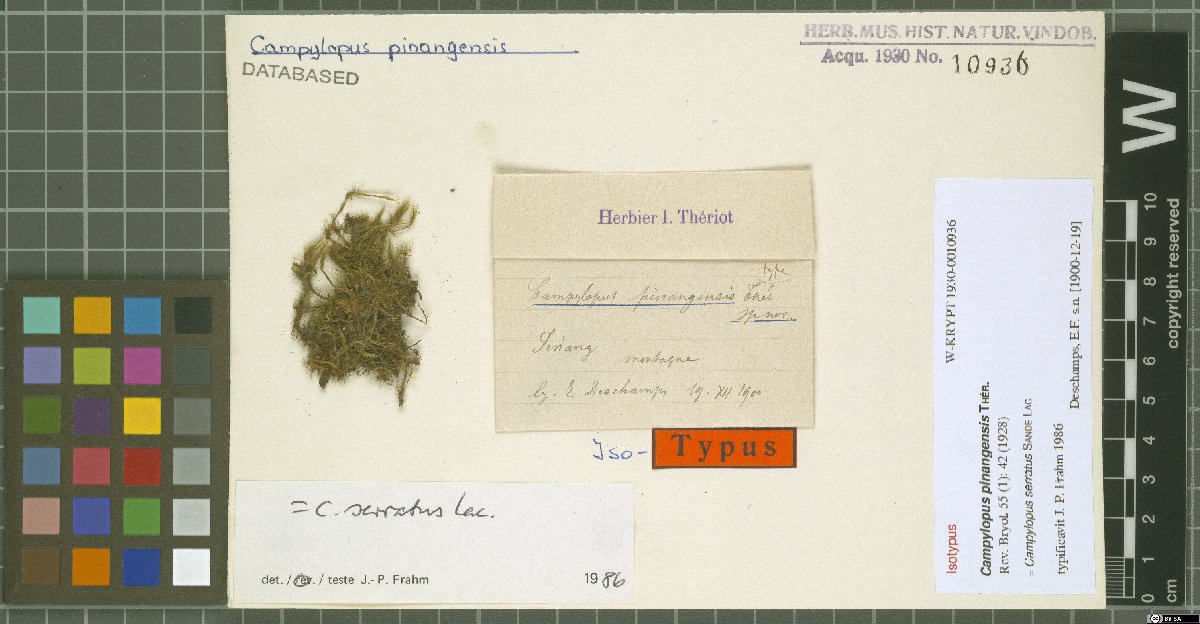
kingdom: Plantae
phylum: Bryophyta
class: Bryopsida
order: Dicranales
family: Leucobryaceae
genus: Campylopus
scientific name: Campylopus serratus
